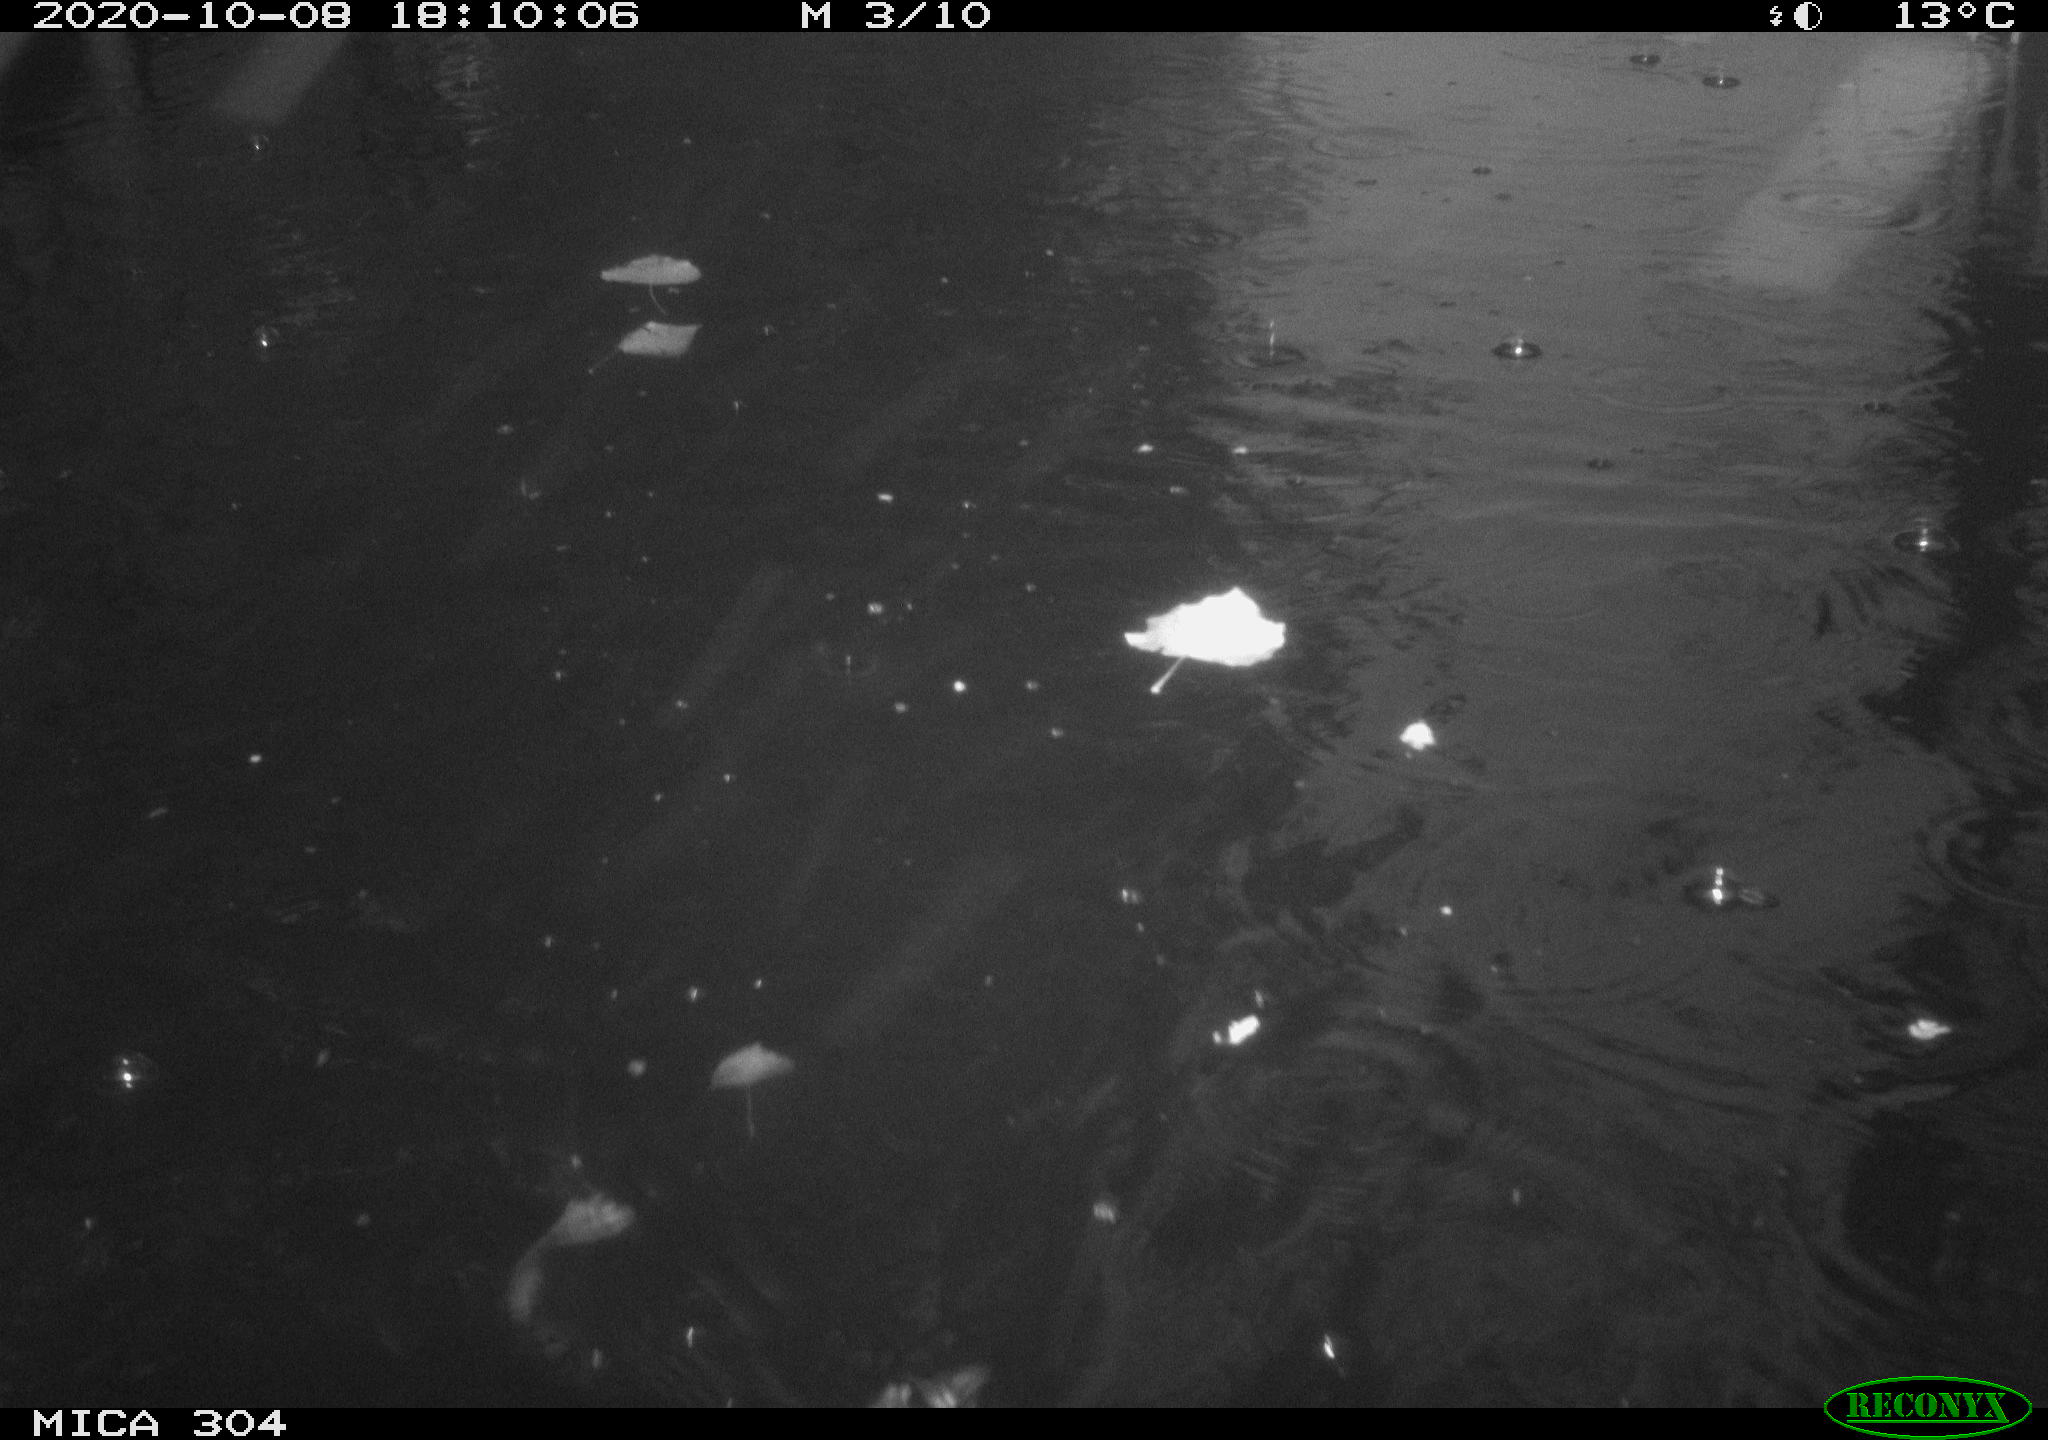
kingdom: Animalia
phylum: Chordata
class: Aves
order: Gruiformes
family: Rallidae
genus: Gallinula
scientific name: Gallinula chloropus
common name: Common moorhen
